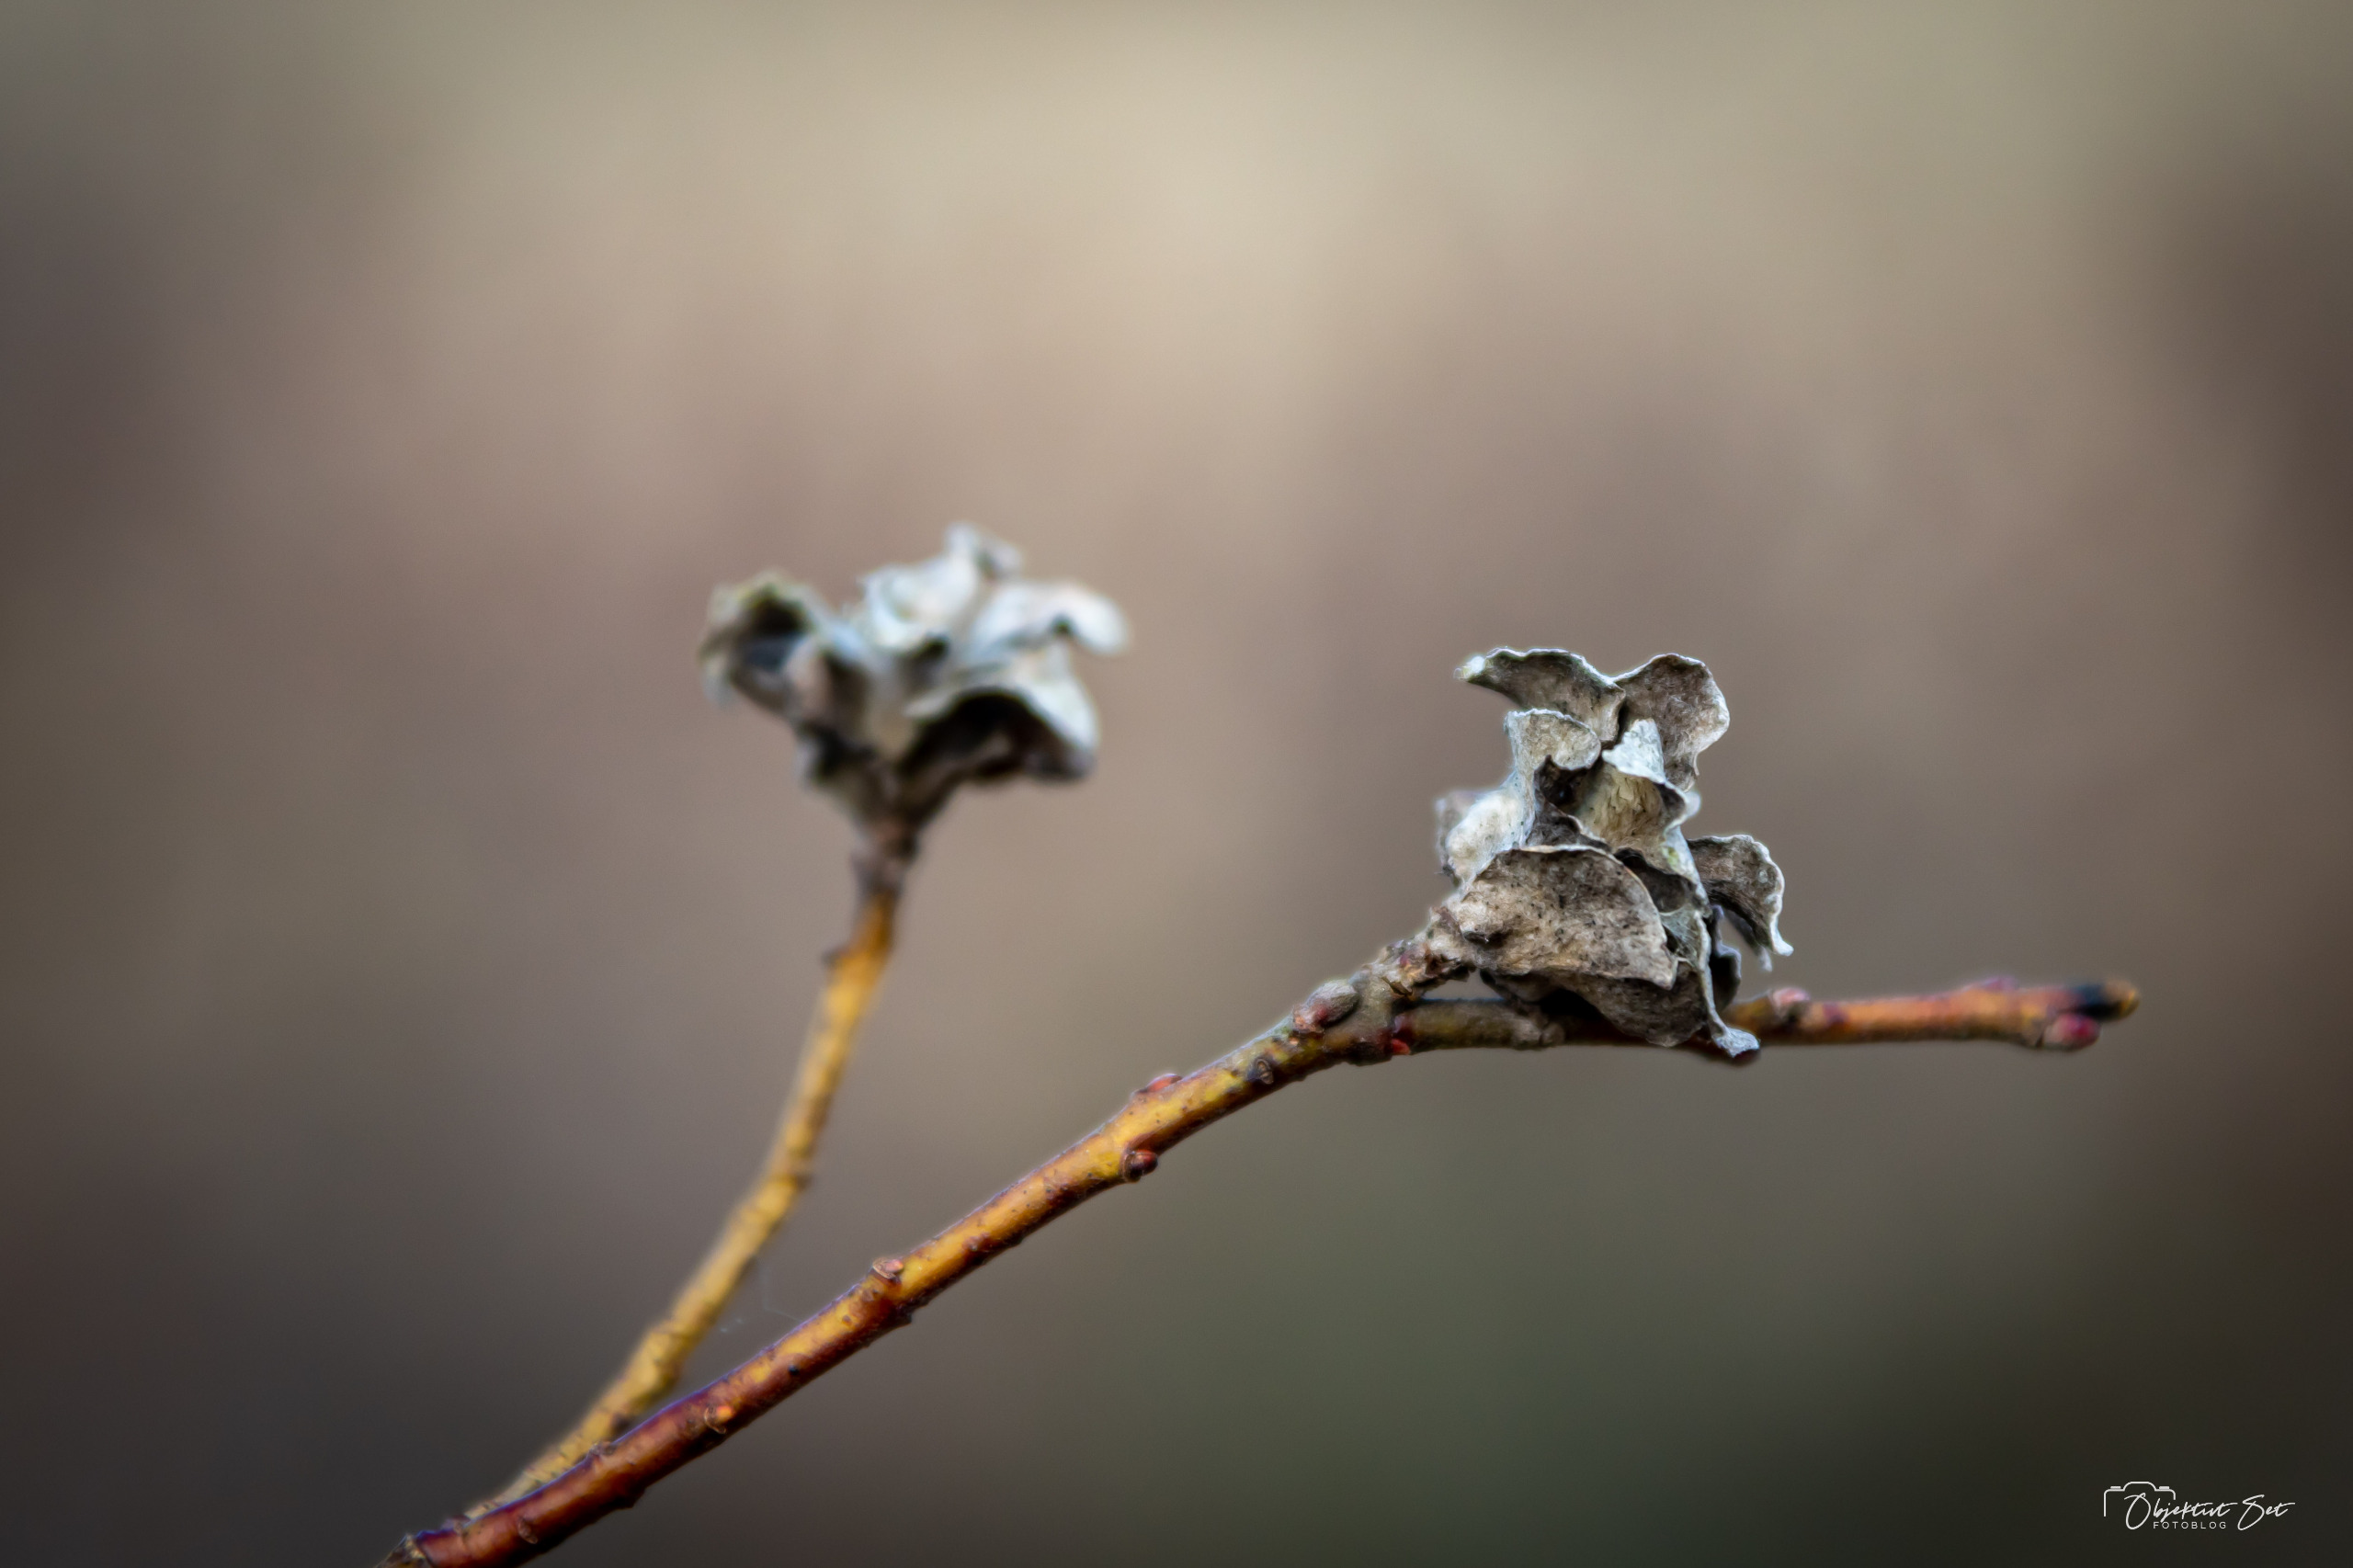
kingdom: Animalia
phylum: Arthropoda
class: Insecta
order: Diptera
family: Cecidomyiidae
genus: Rabdophaga
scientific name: Rabdophaga rosaria
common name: Pilerosetgalmyg
